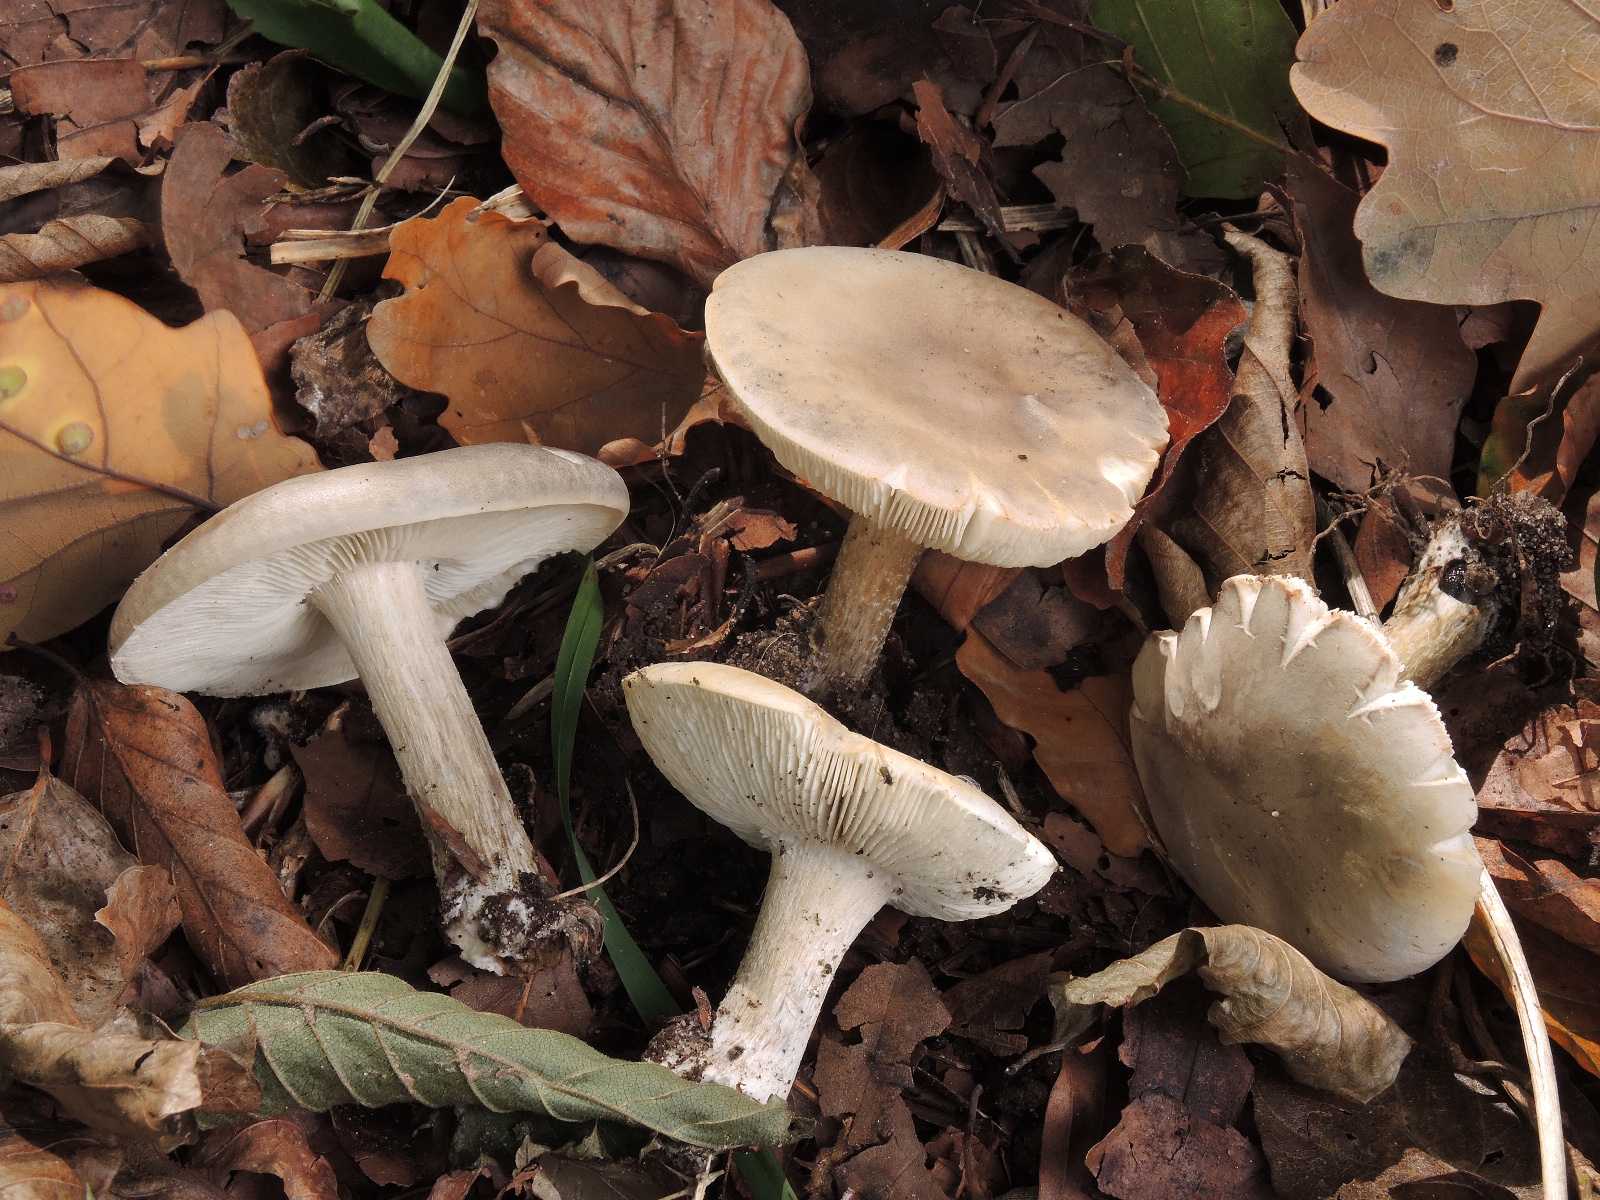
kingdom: Fungi
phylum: Basidiomycota
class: Agaricomycetes
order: Agaricales
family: Tricholomataceae
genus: Melanoleuca
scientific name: Melanoleuca polioleuca
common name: hvidbladet munkehat
